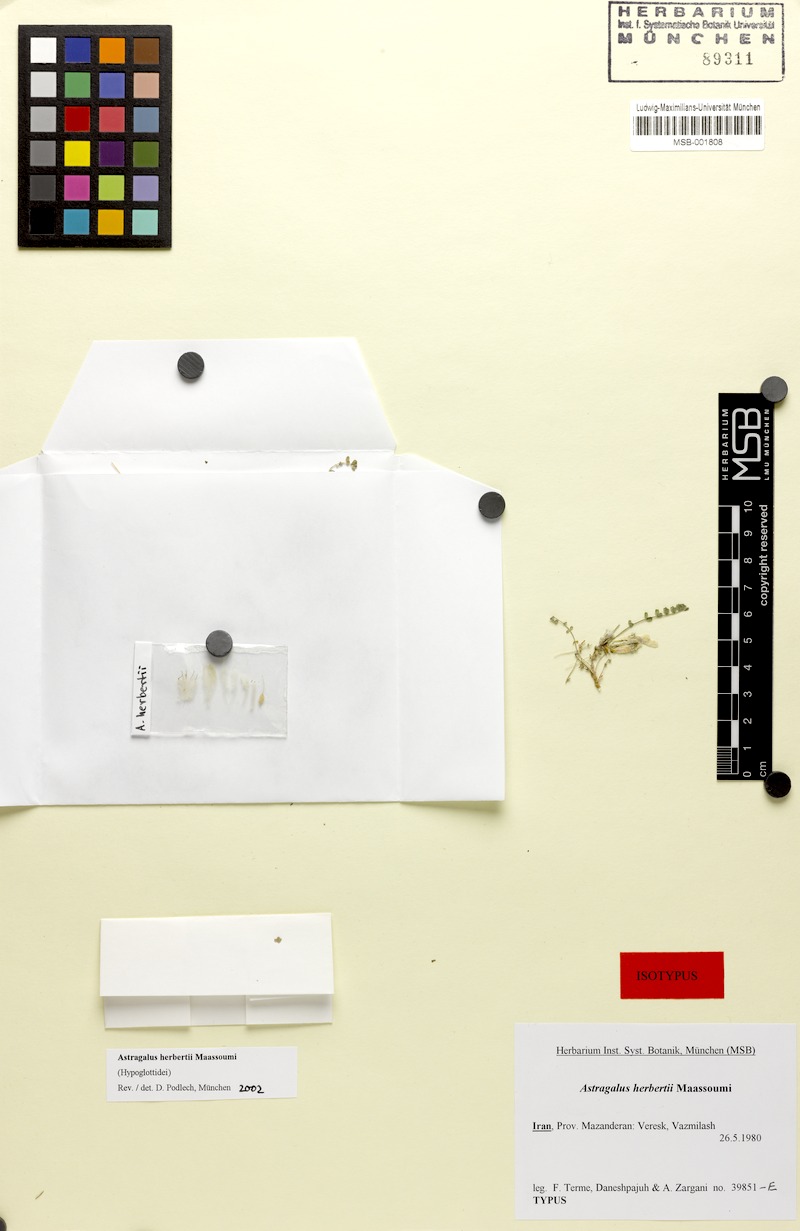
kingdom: Plantae
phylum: Tracheophyta
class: Magnoliopsida
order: Fabales
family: Fabaceae
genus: Astragalus
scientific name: Astragalus herbertii
